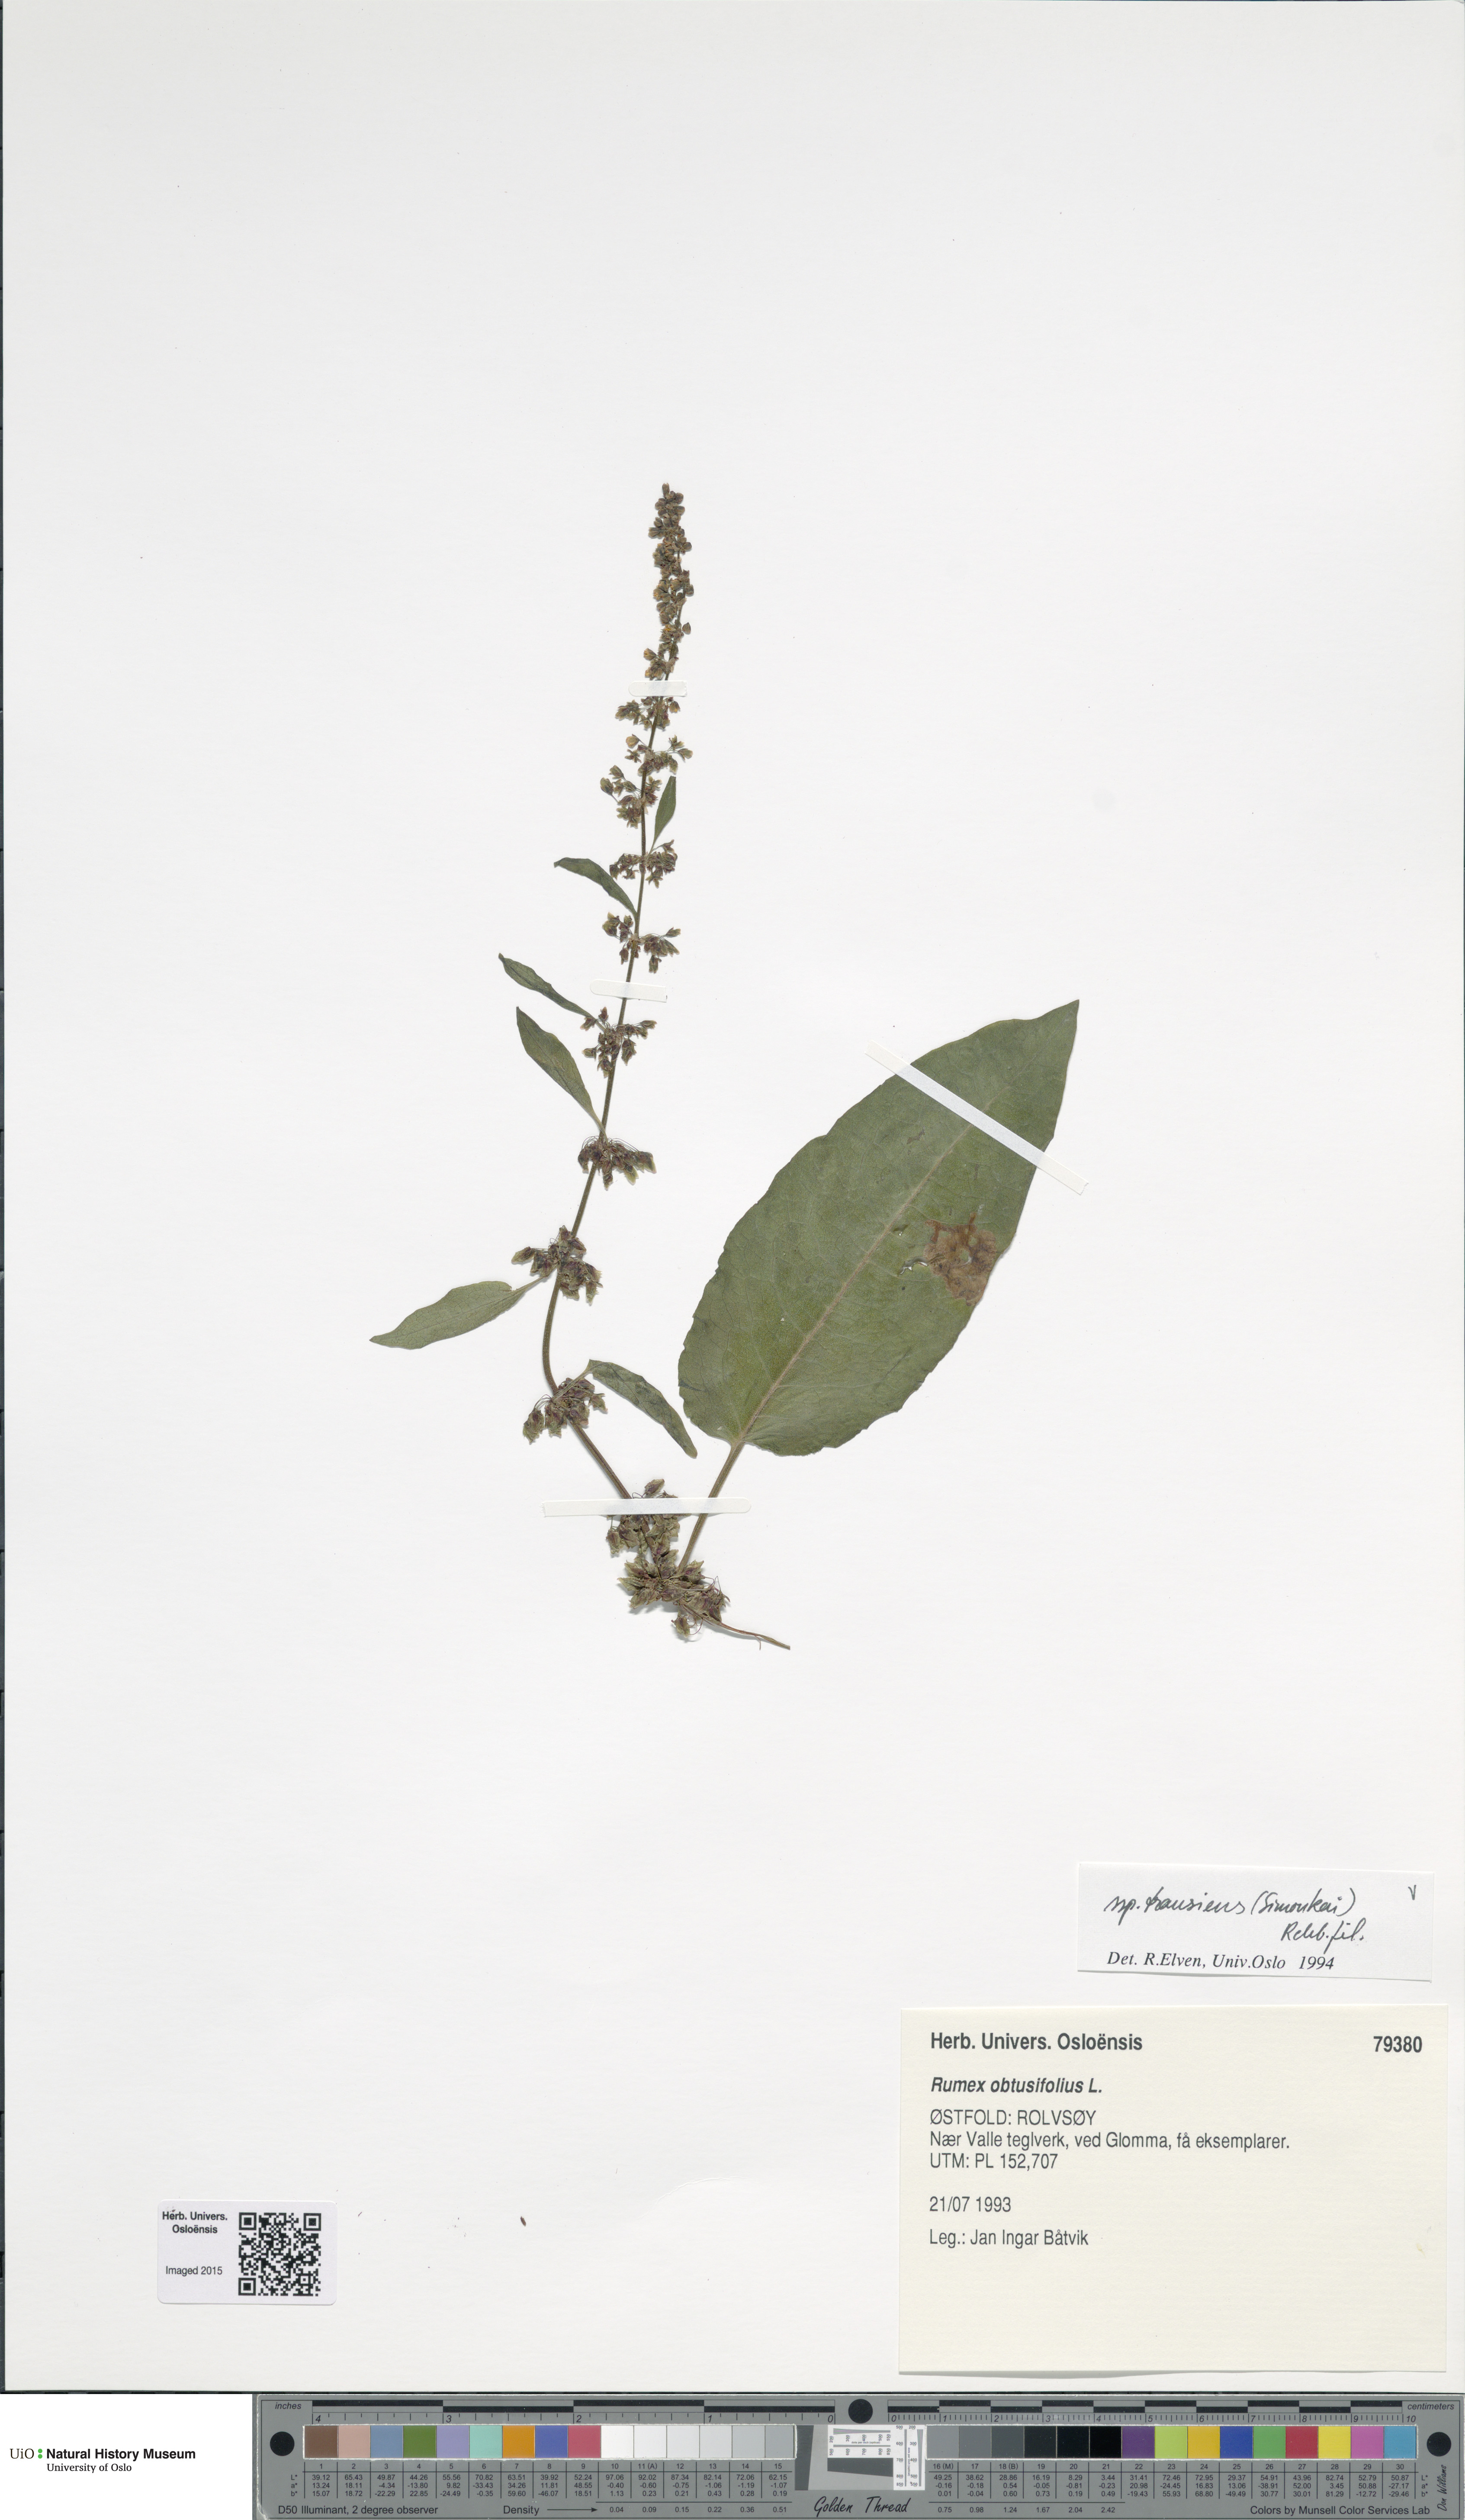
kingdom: Plantae
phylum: Tracheophyta
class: Magnoliopsida
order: Caryophyllales
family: Polygonaceae
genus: Rumex
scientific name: Rumex obtusifolius
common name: Bitter dock
